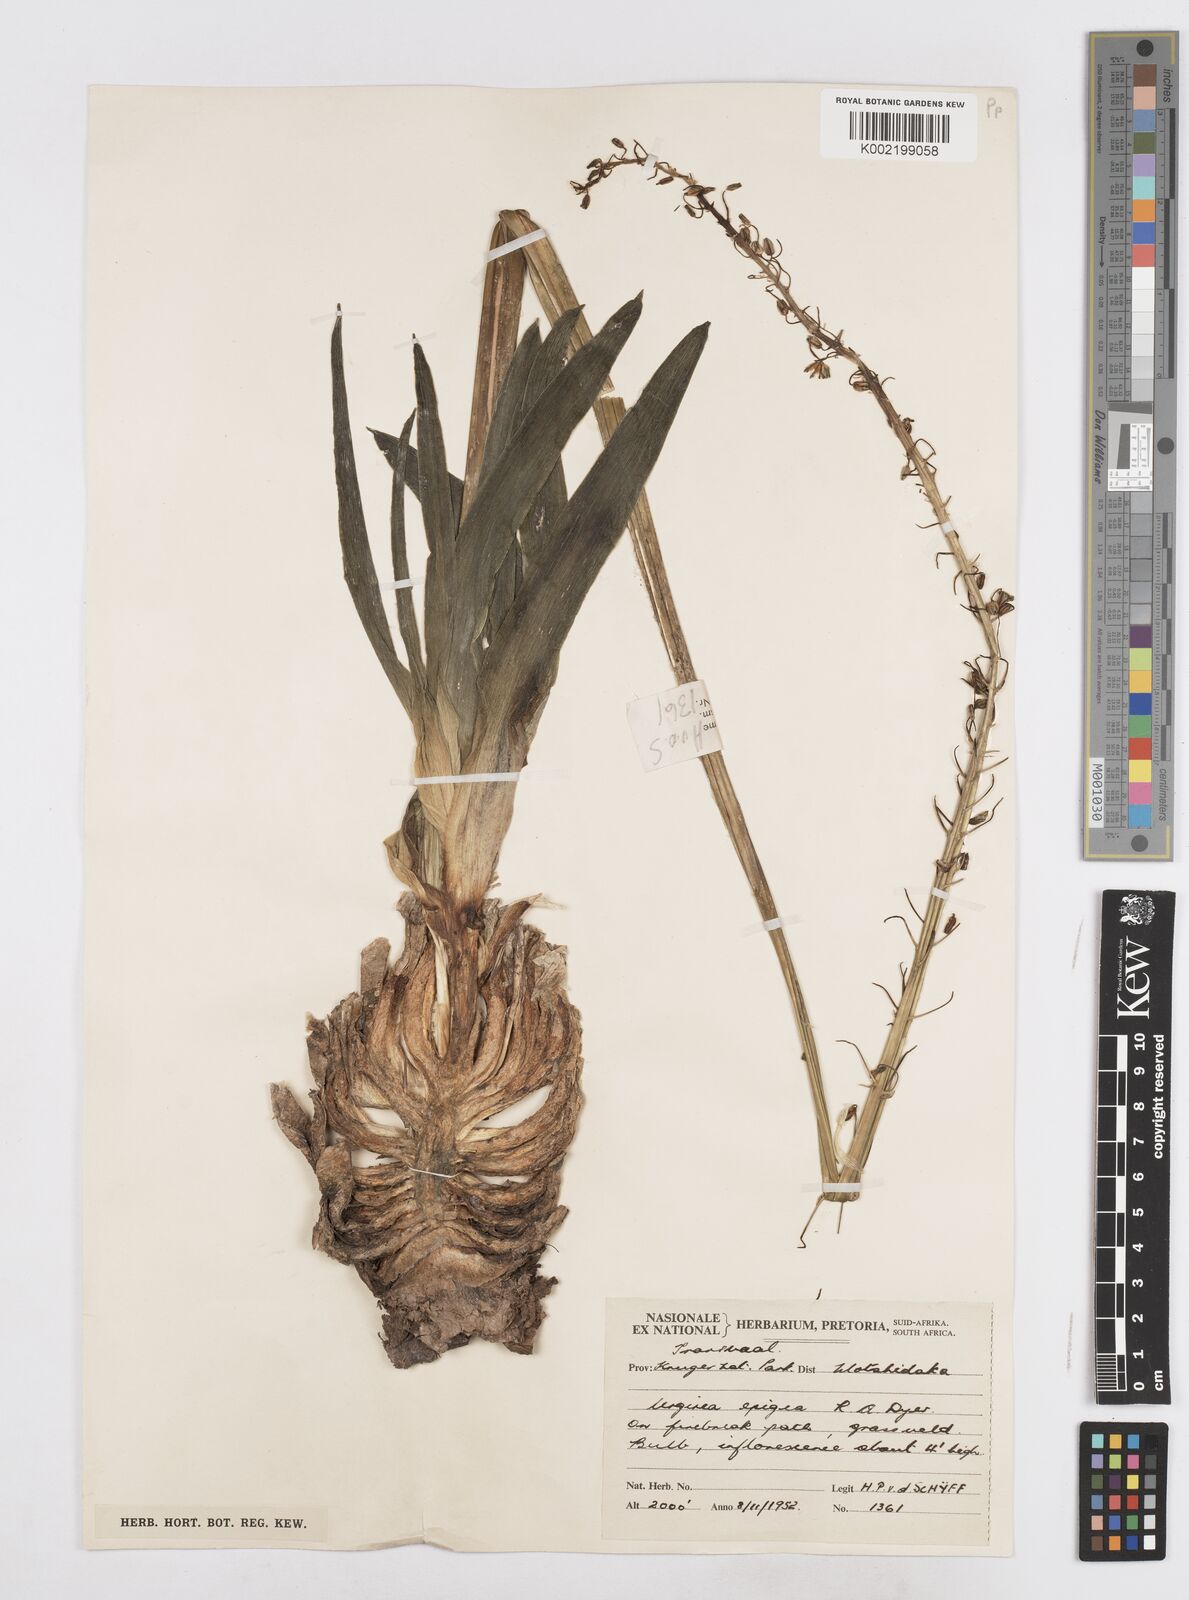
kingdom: Plantae
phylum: Tracheophyta
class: Liliopsida
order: Asparagales
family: Asparagaceae
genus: Drimia
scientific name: Drimia
